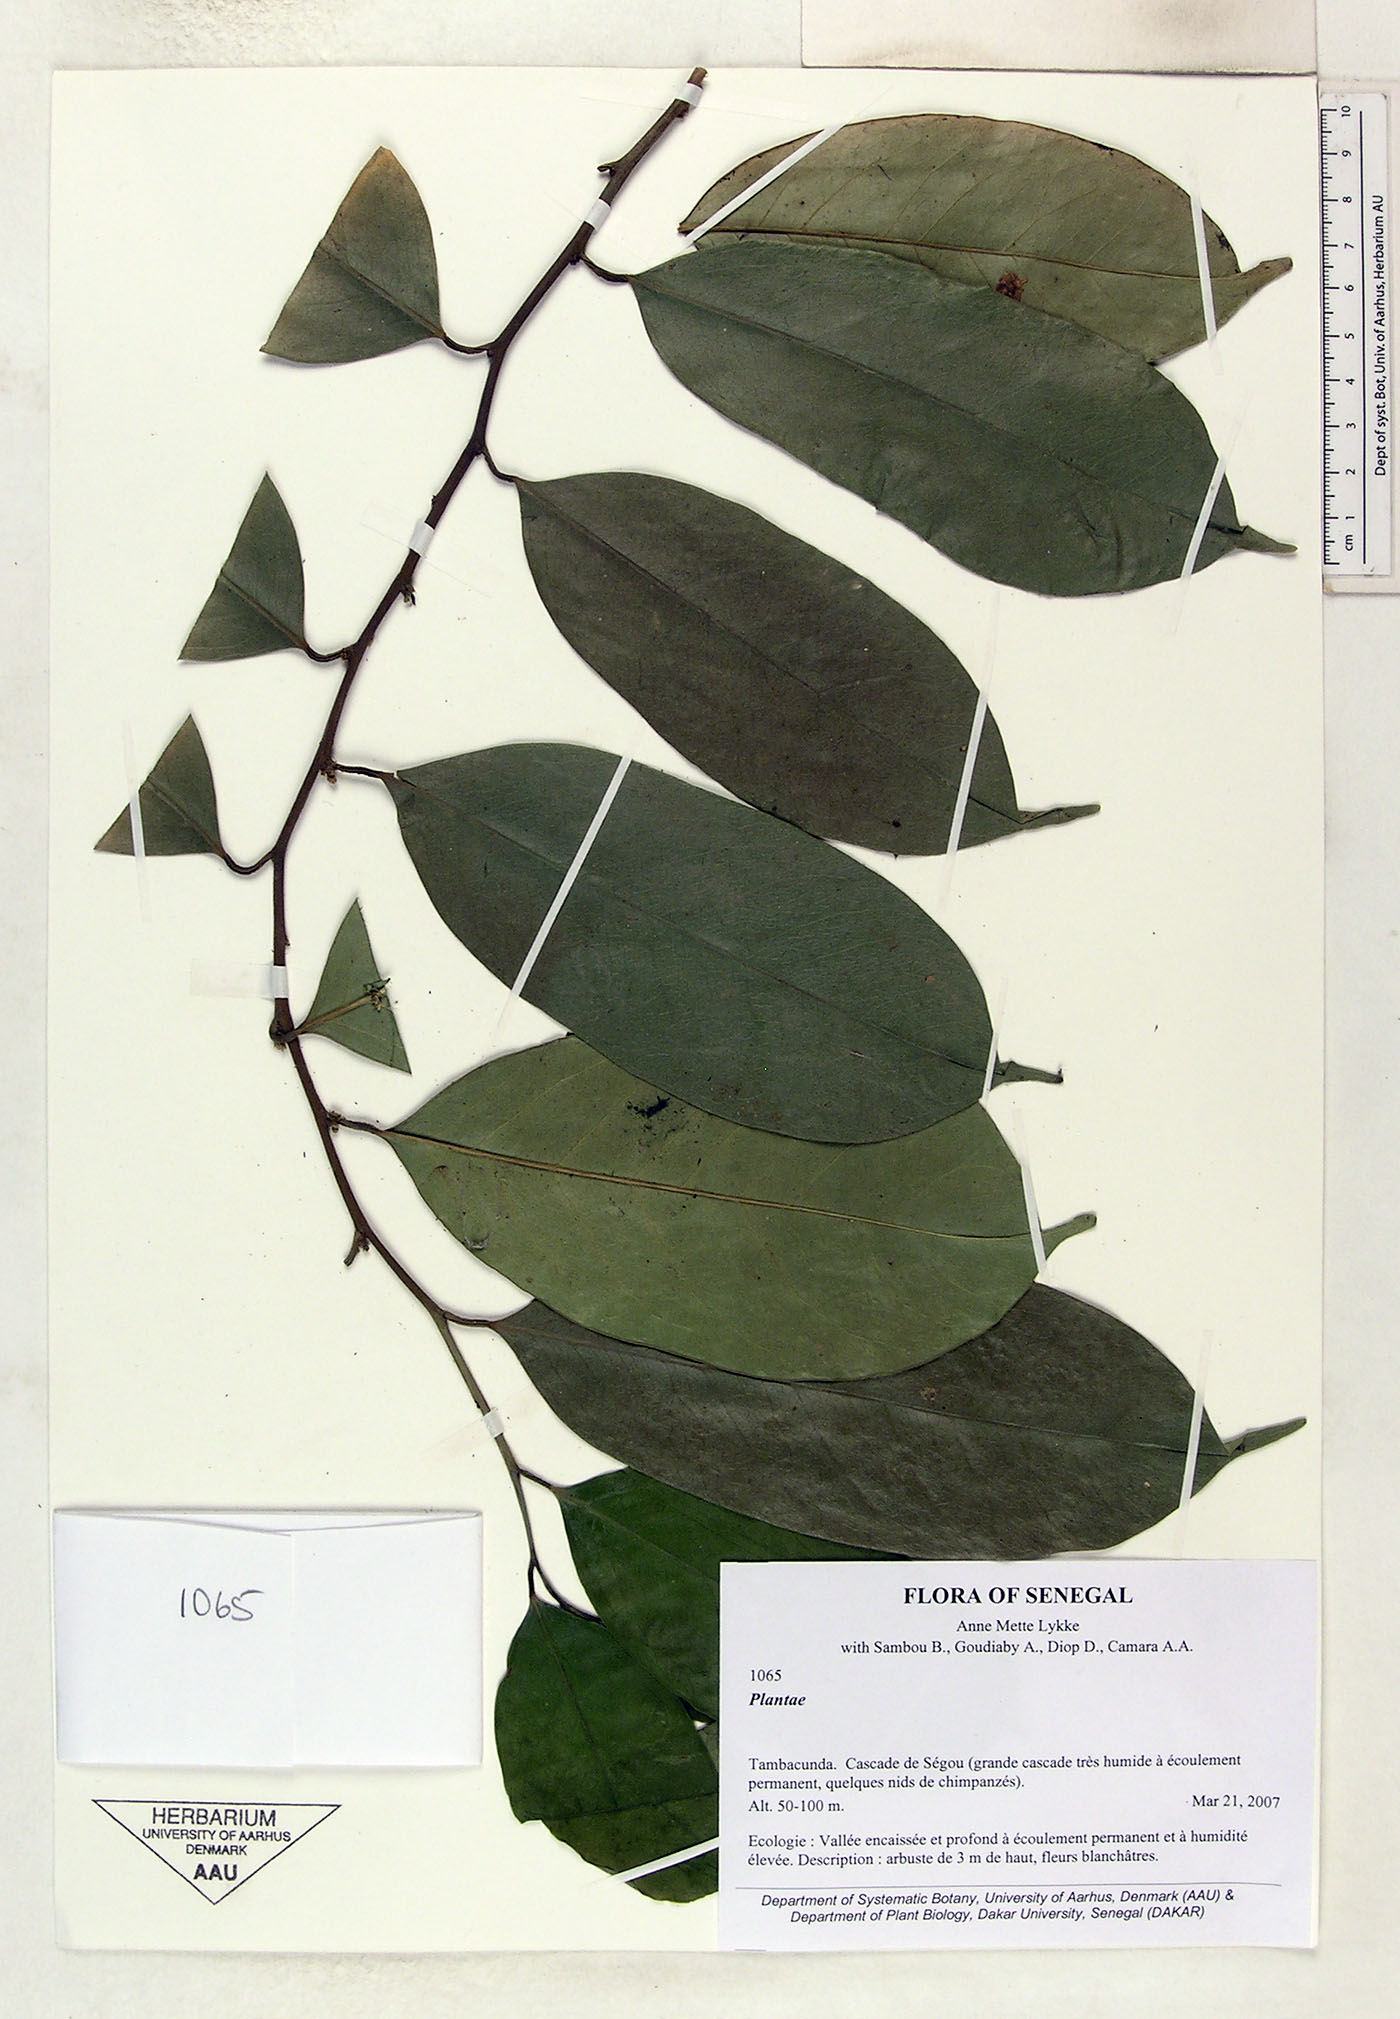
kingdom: Plantae
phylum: Tracheophyta
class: Magnoliopsida
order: Santalales
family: Strombosiaceae
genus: Strombosia
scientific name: Strombosia
